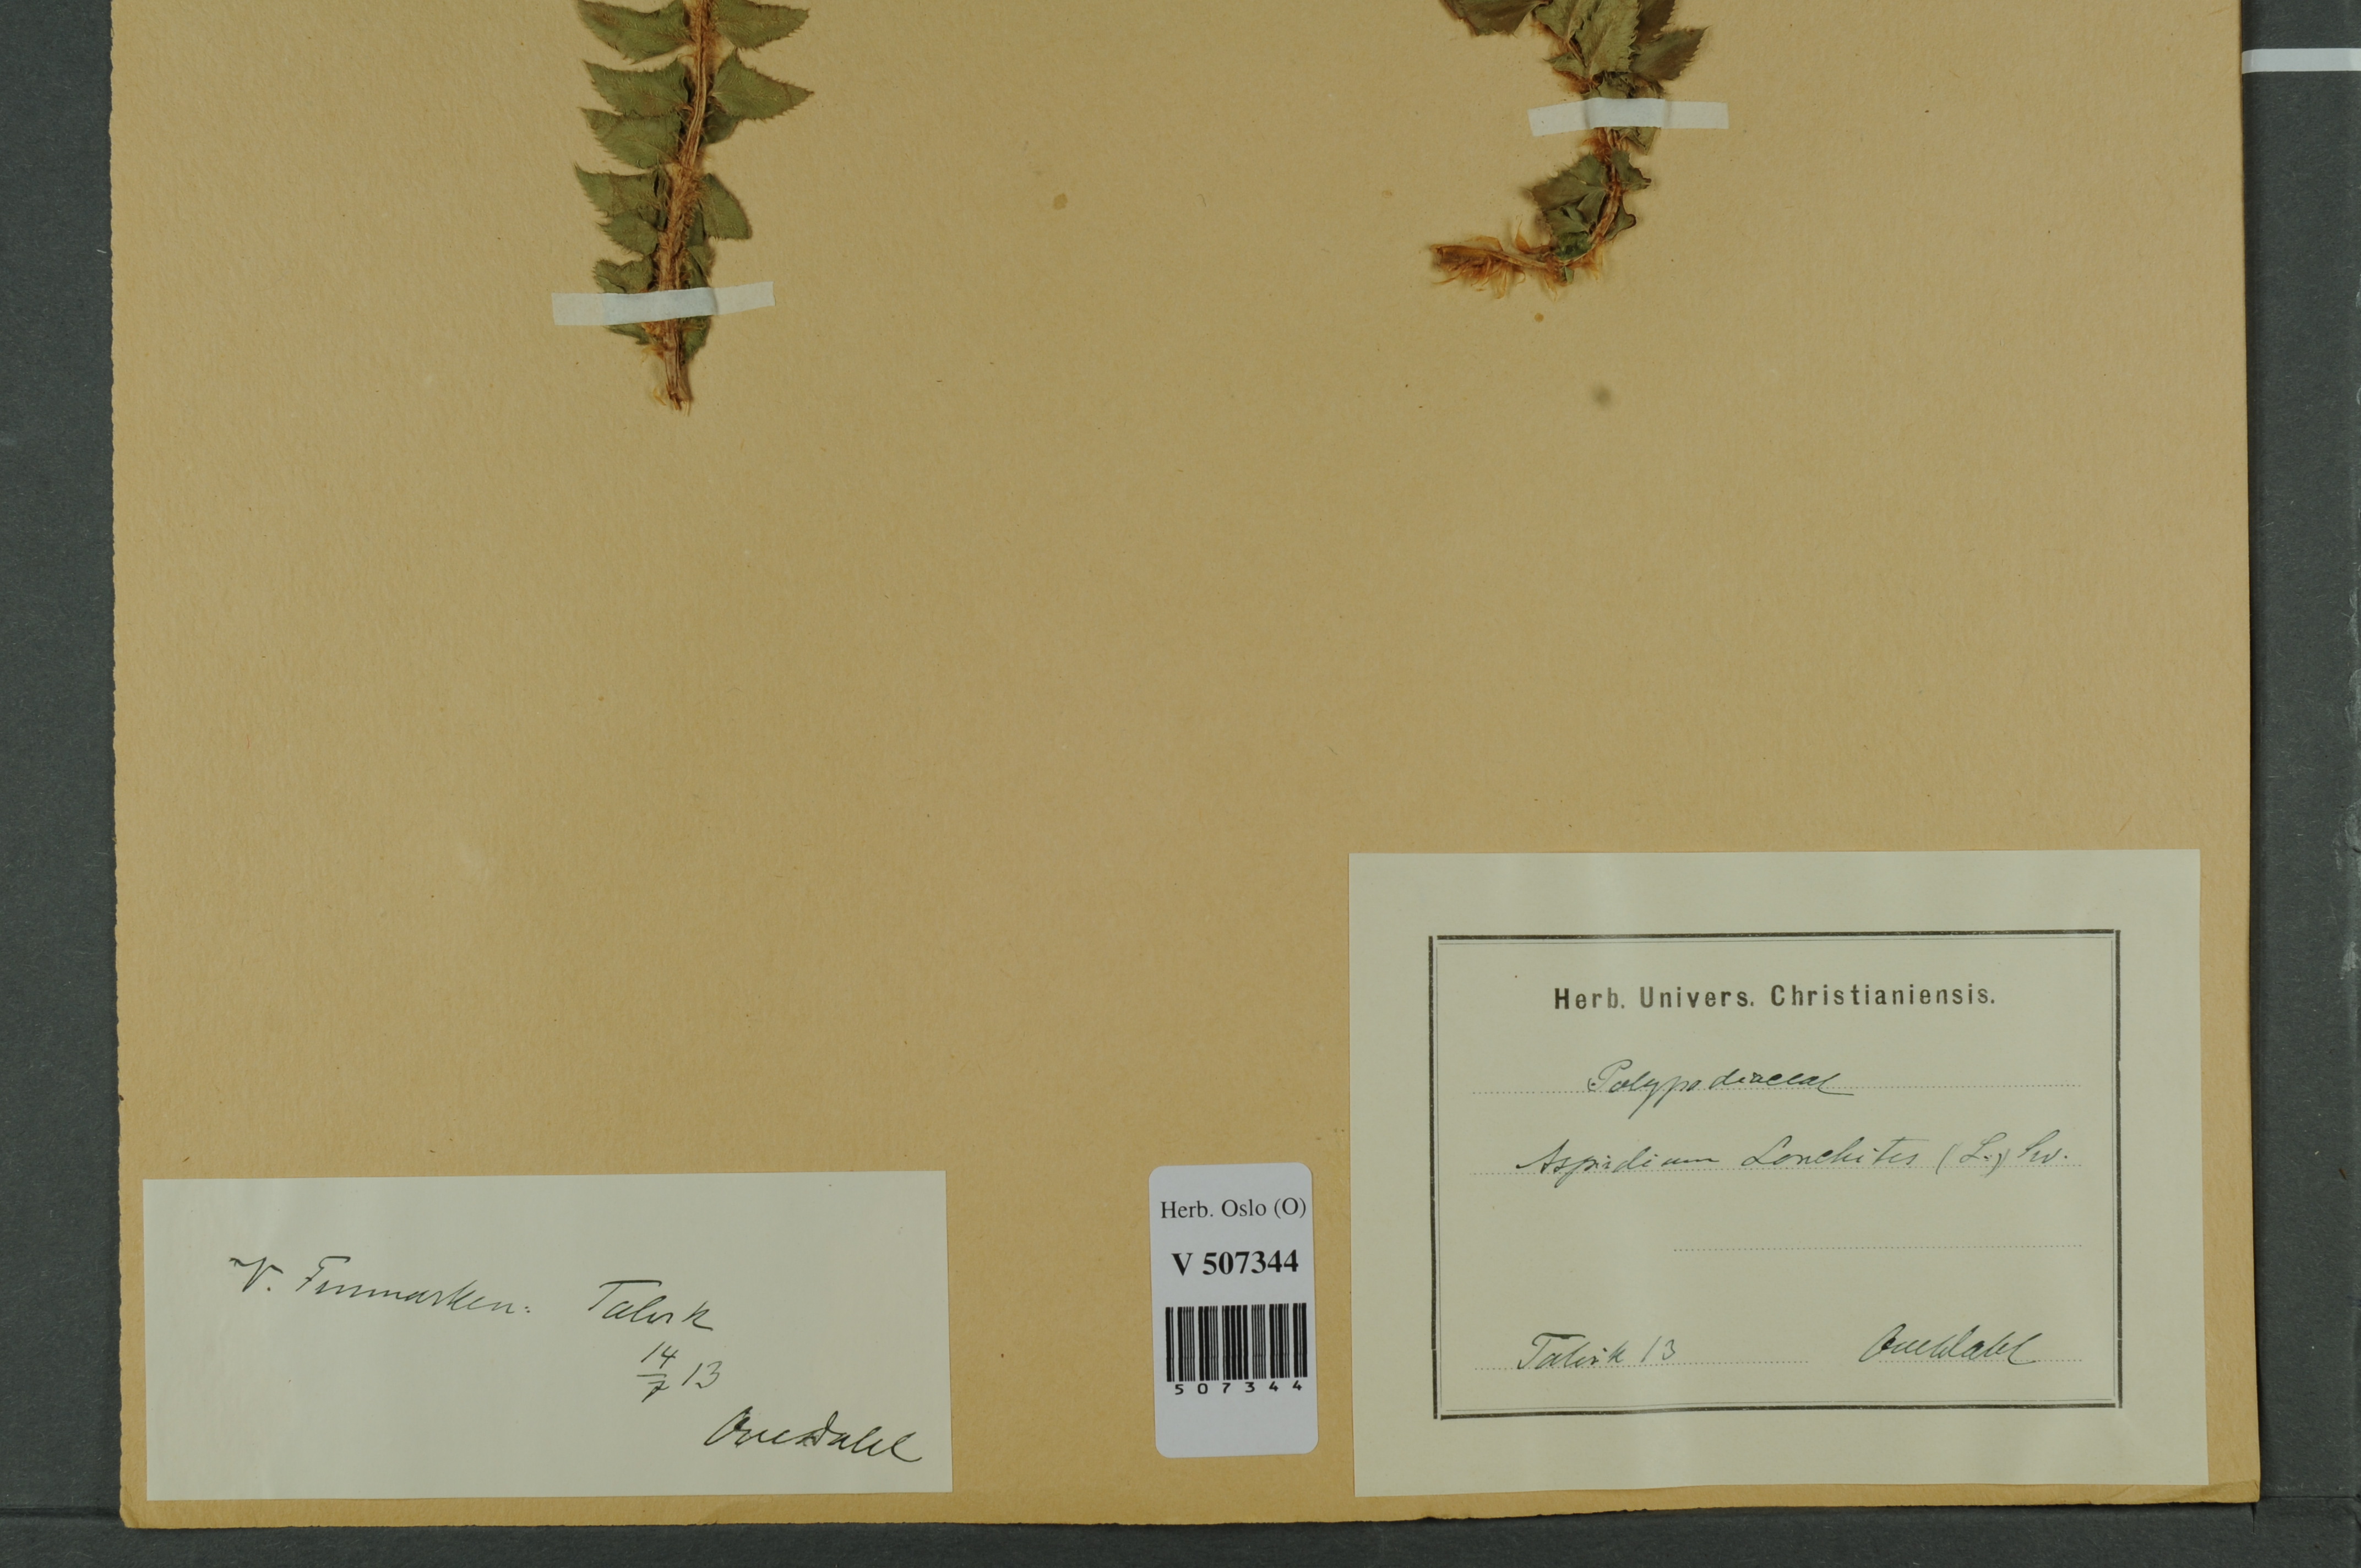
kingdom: Plantae
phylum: Tracheophyta
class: Polypodiopsida
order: Polypodiales
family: Dryopteridaceae
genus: Polystichum
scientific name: Polystichum lonchitis
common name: Holly fern
